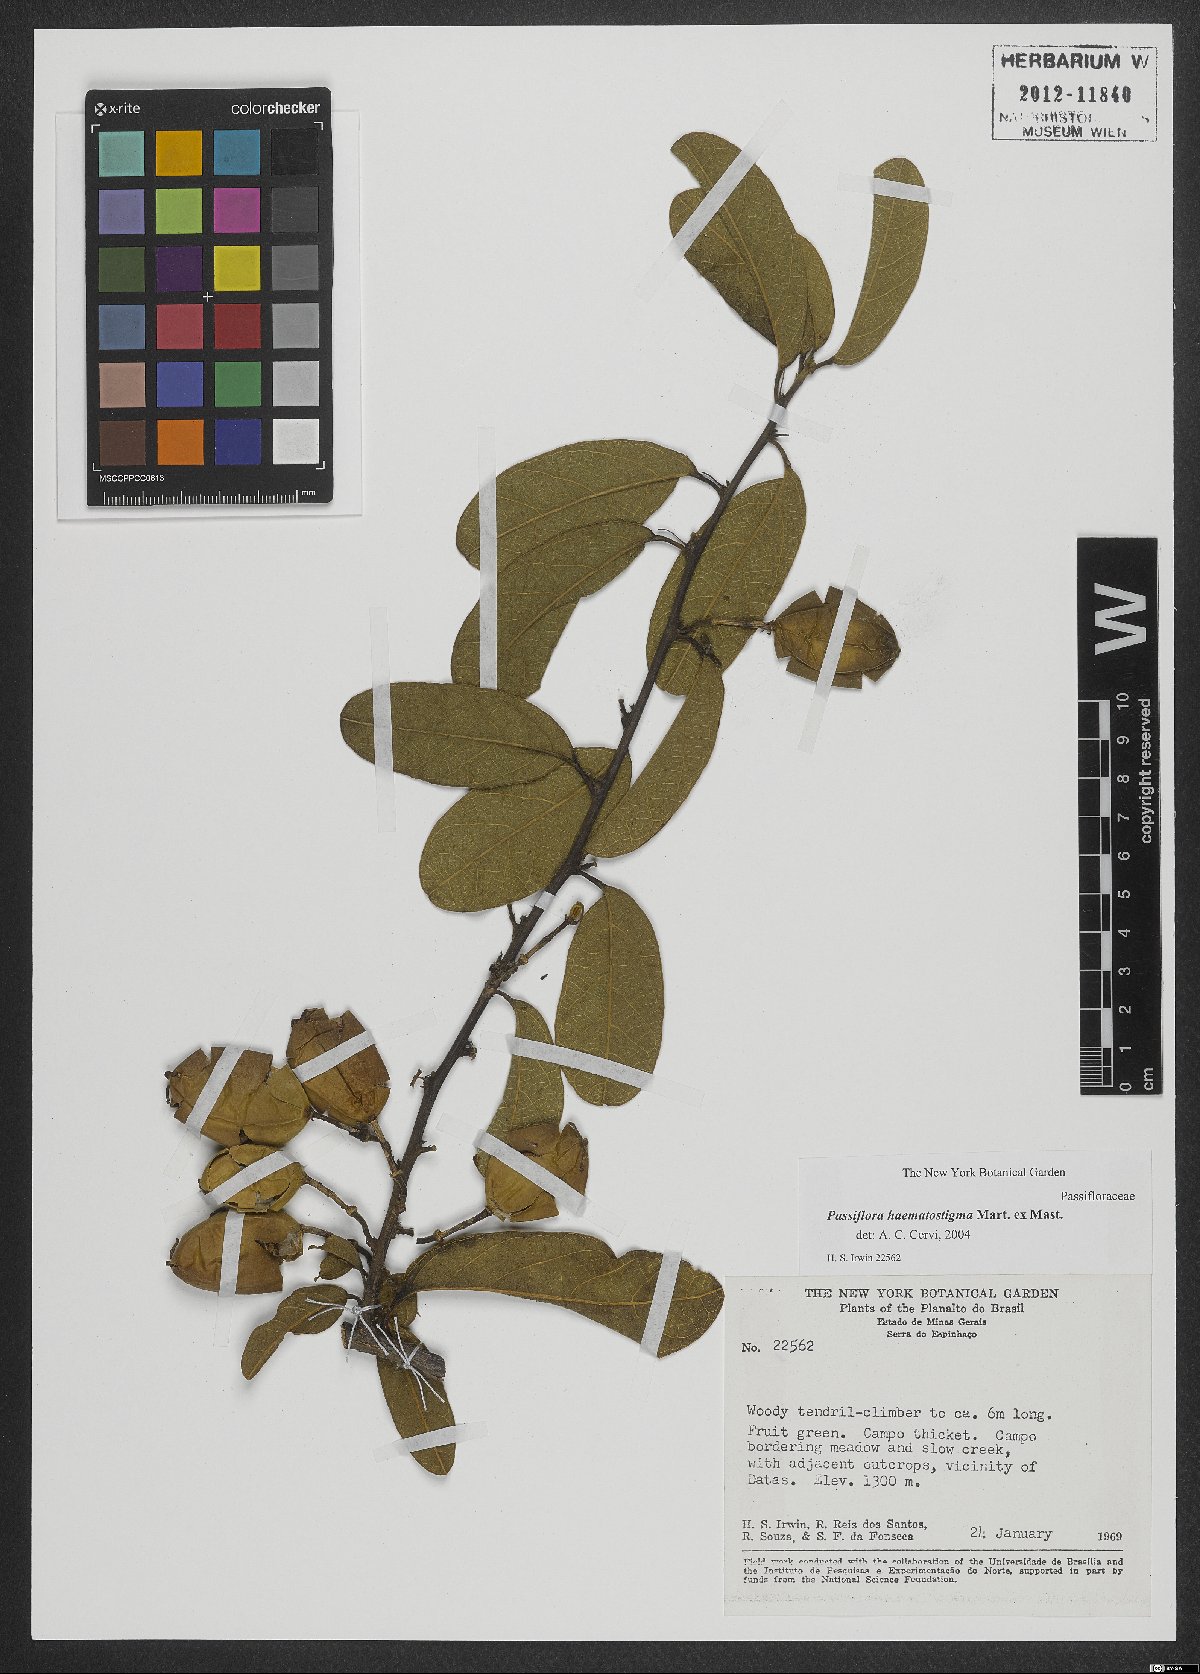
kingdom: Plantae
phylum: Tracheophyta
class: Magnoliopsida
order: Malpighiales
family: Passifloraceae
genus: Passiflora
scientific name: Passiflora haematostigma
